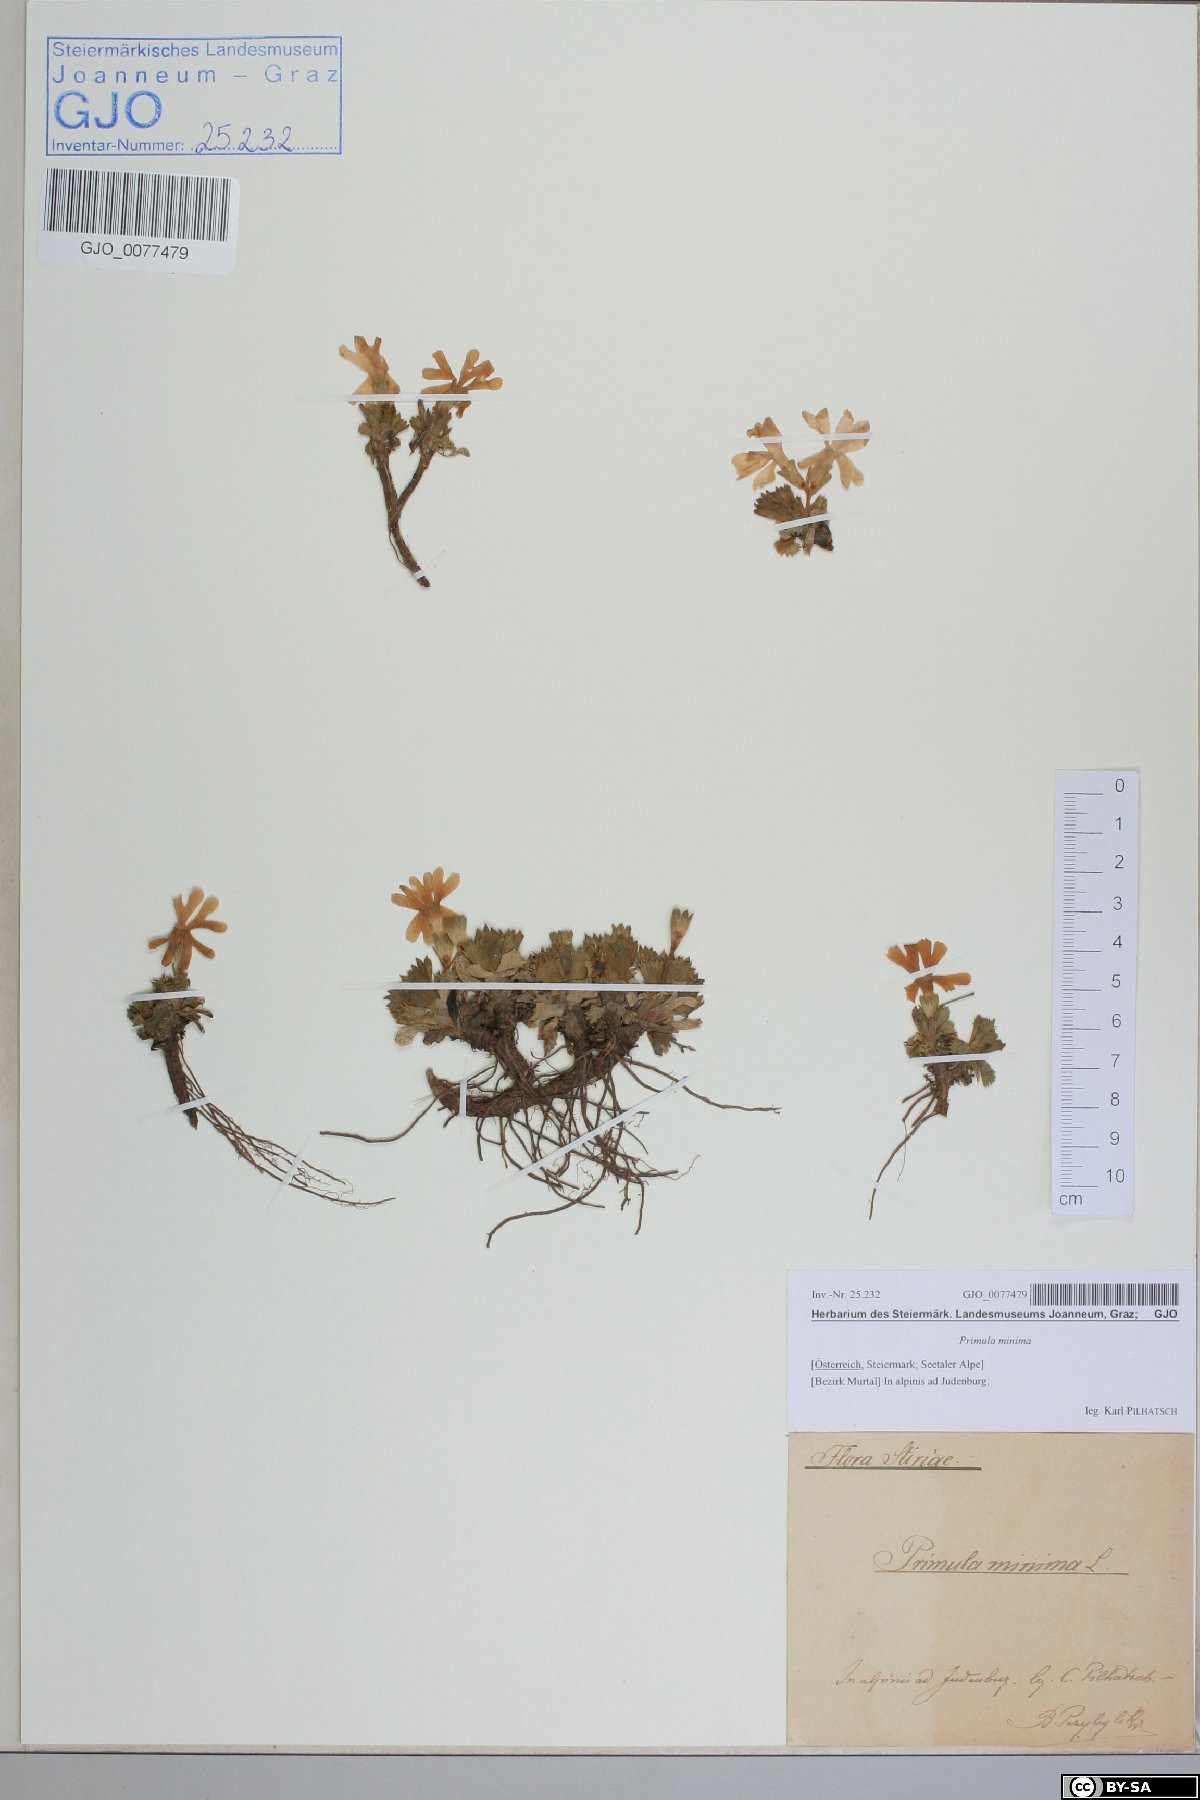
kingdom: Plantae
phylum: Tracheophyta
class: Magnoliopsida
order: Ericales
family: Primulaceae
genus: Primula
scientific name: Primula minima
